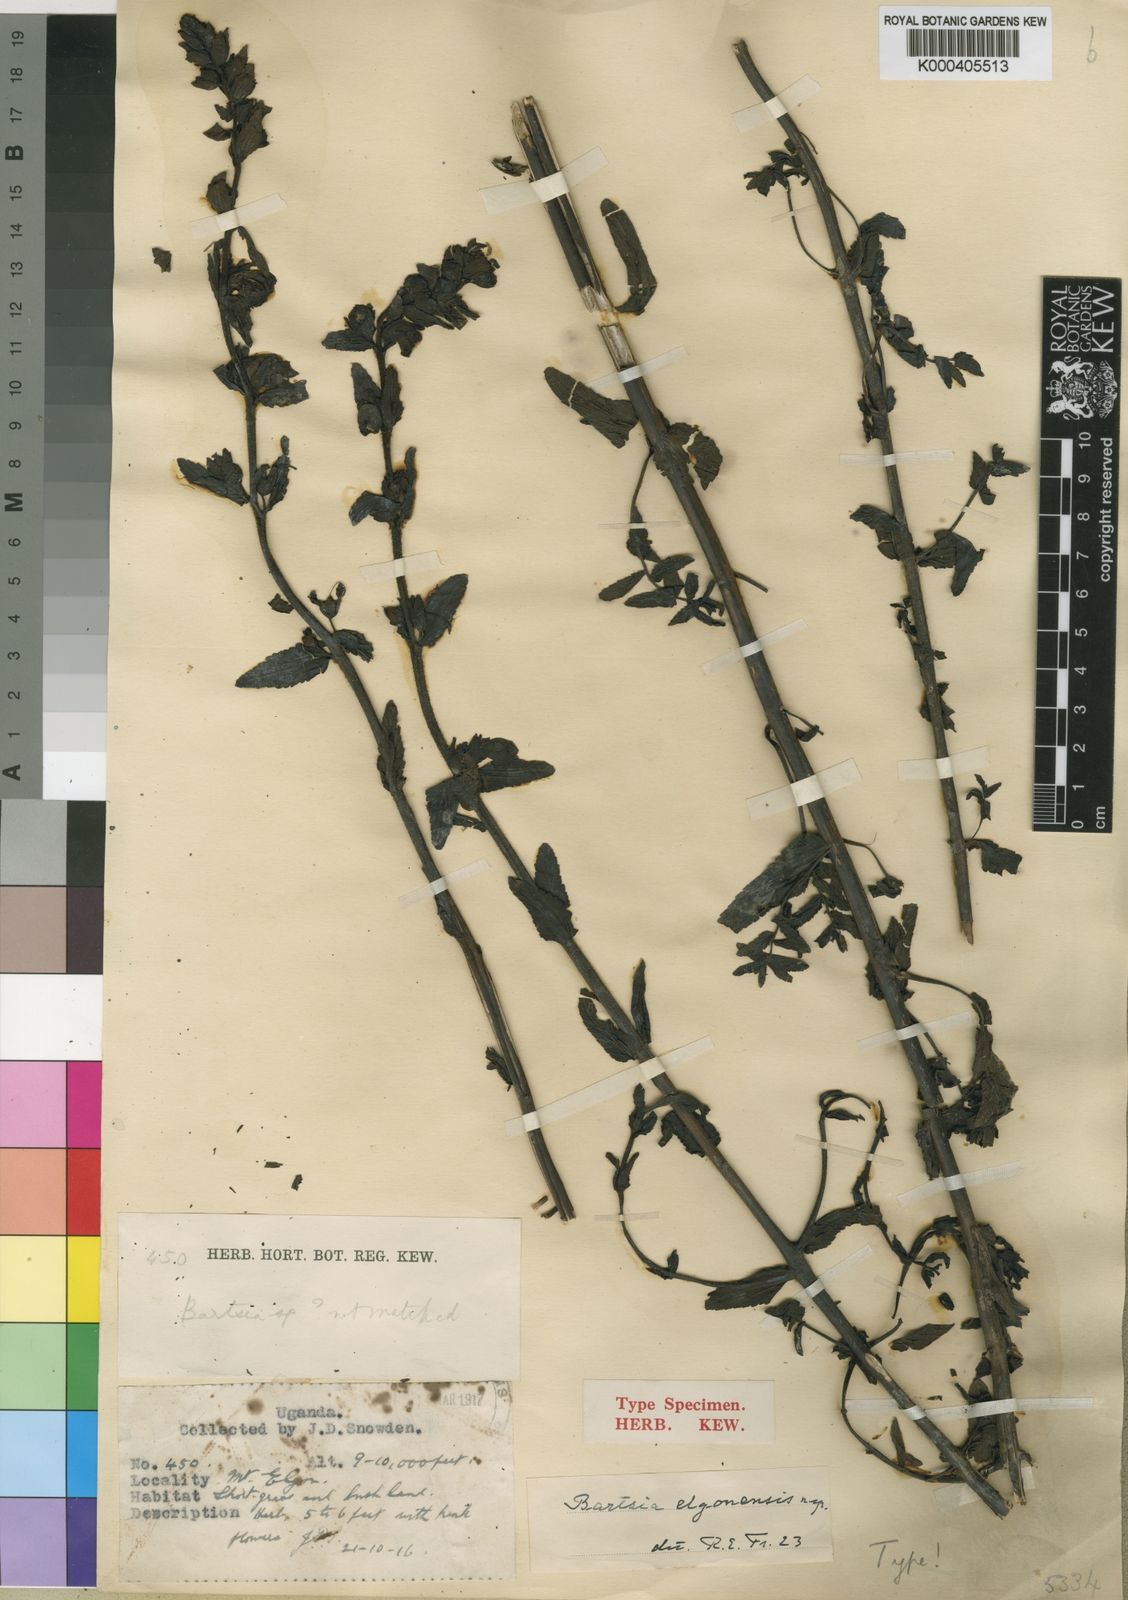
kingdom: Plantae
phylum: Tracheophyta
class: Magnoliopsida
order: Lamiales
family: Orobanchaceae
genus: Hedbergia
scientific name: Hedbergia abyssinica
